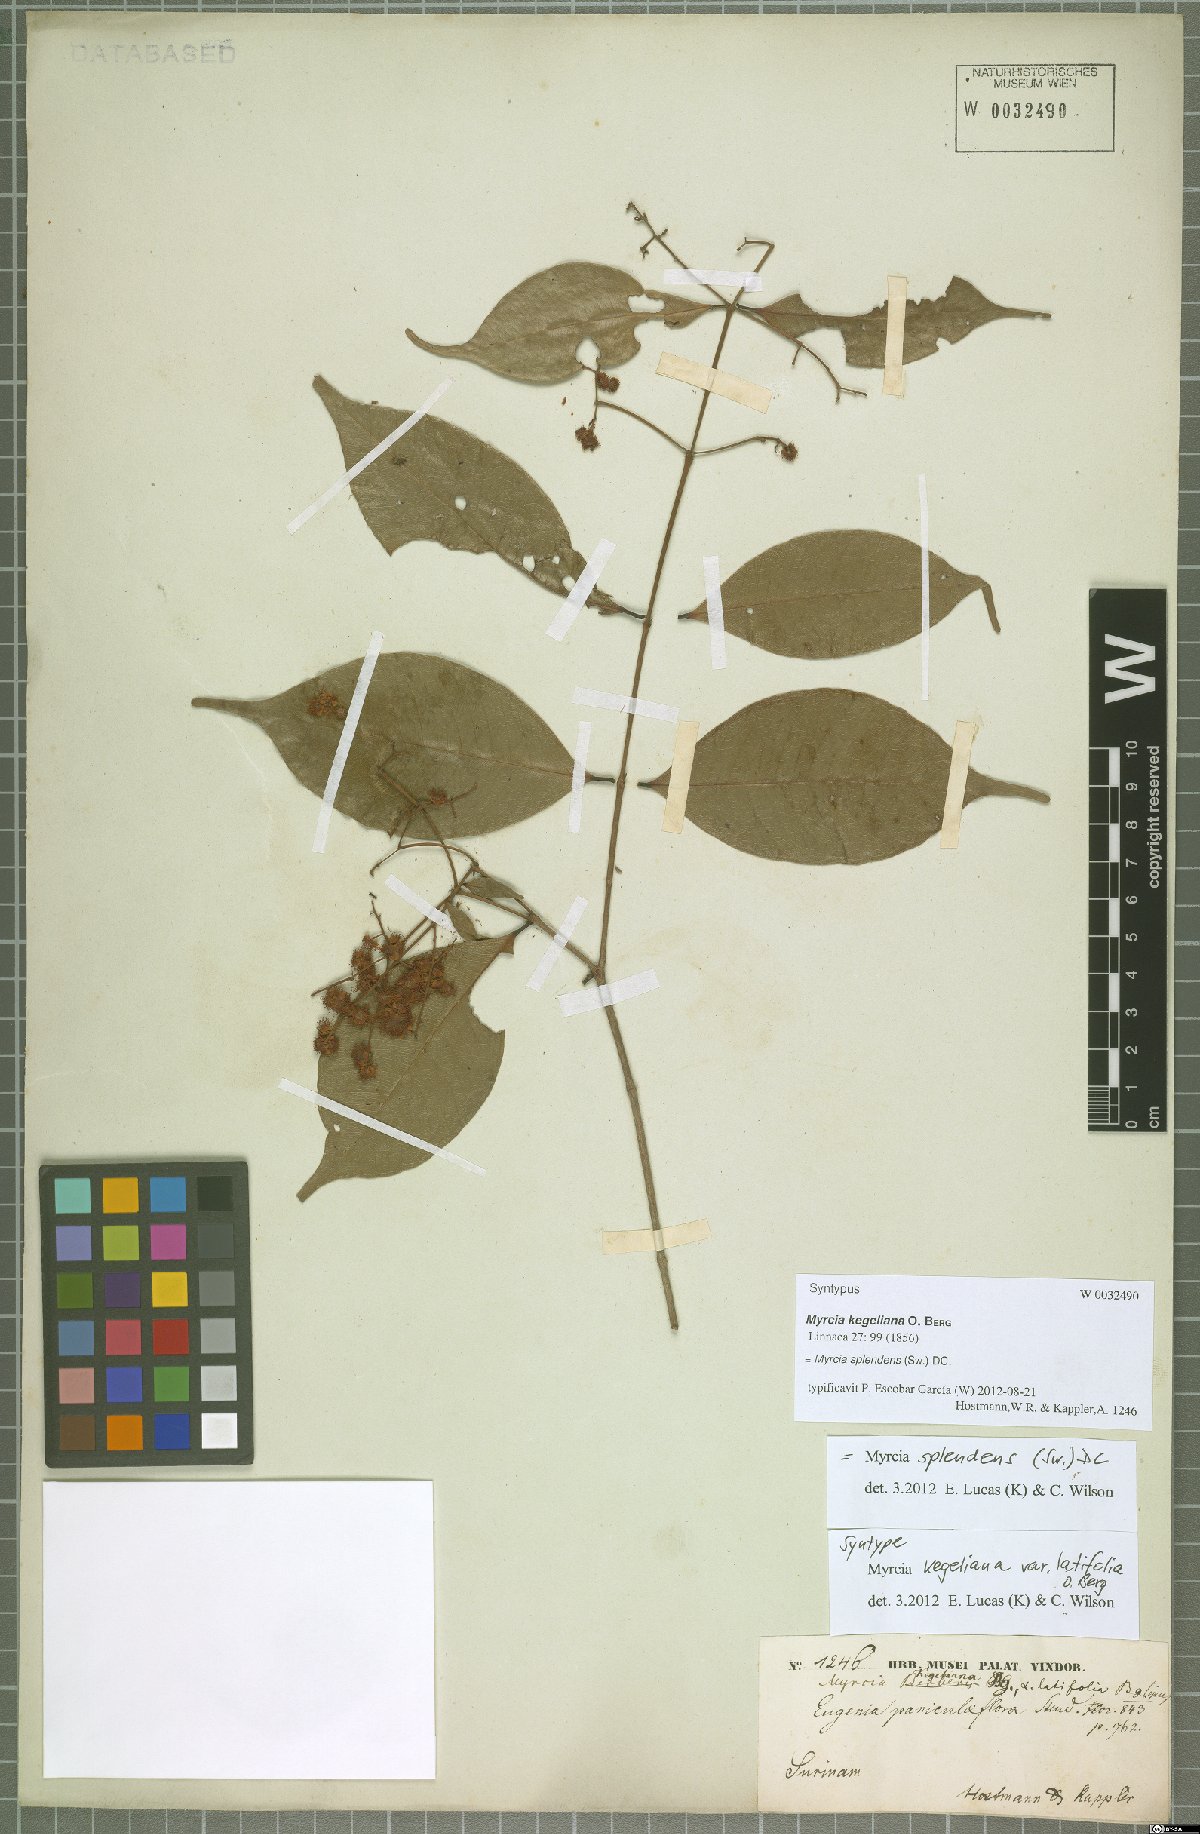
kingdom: Plantae
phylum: Tracheophyta
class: Magnoliopsida
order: Myrtales
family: Myrtaceae
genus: Myrcia
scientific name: Myrcia splendens
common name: Surinam cherry
